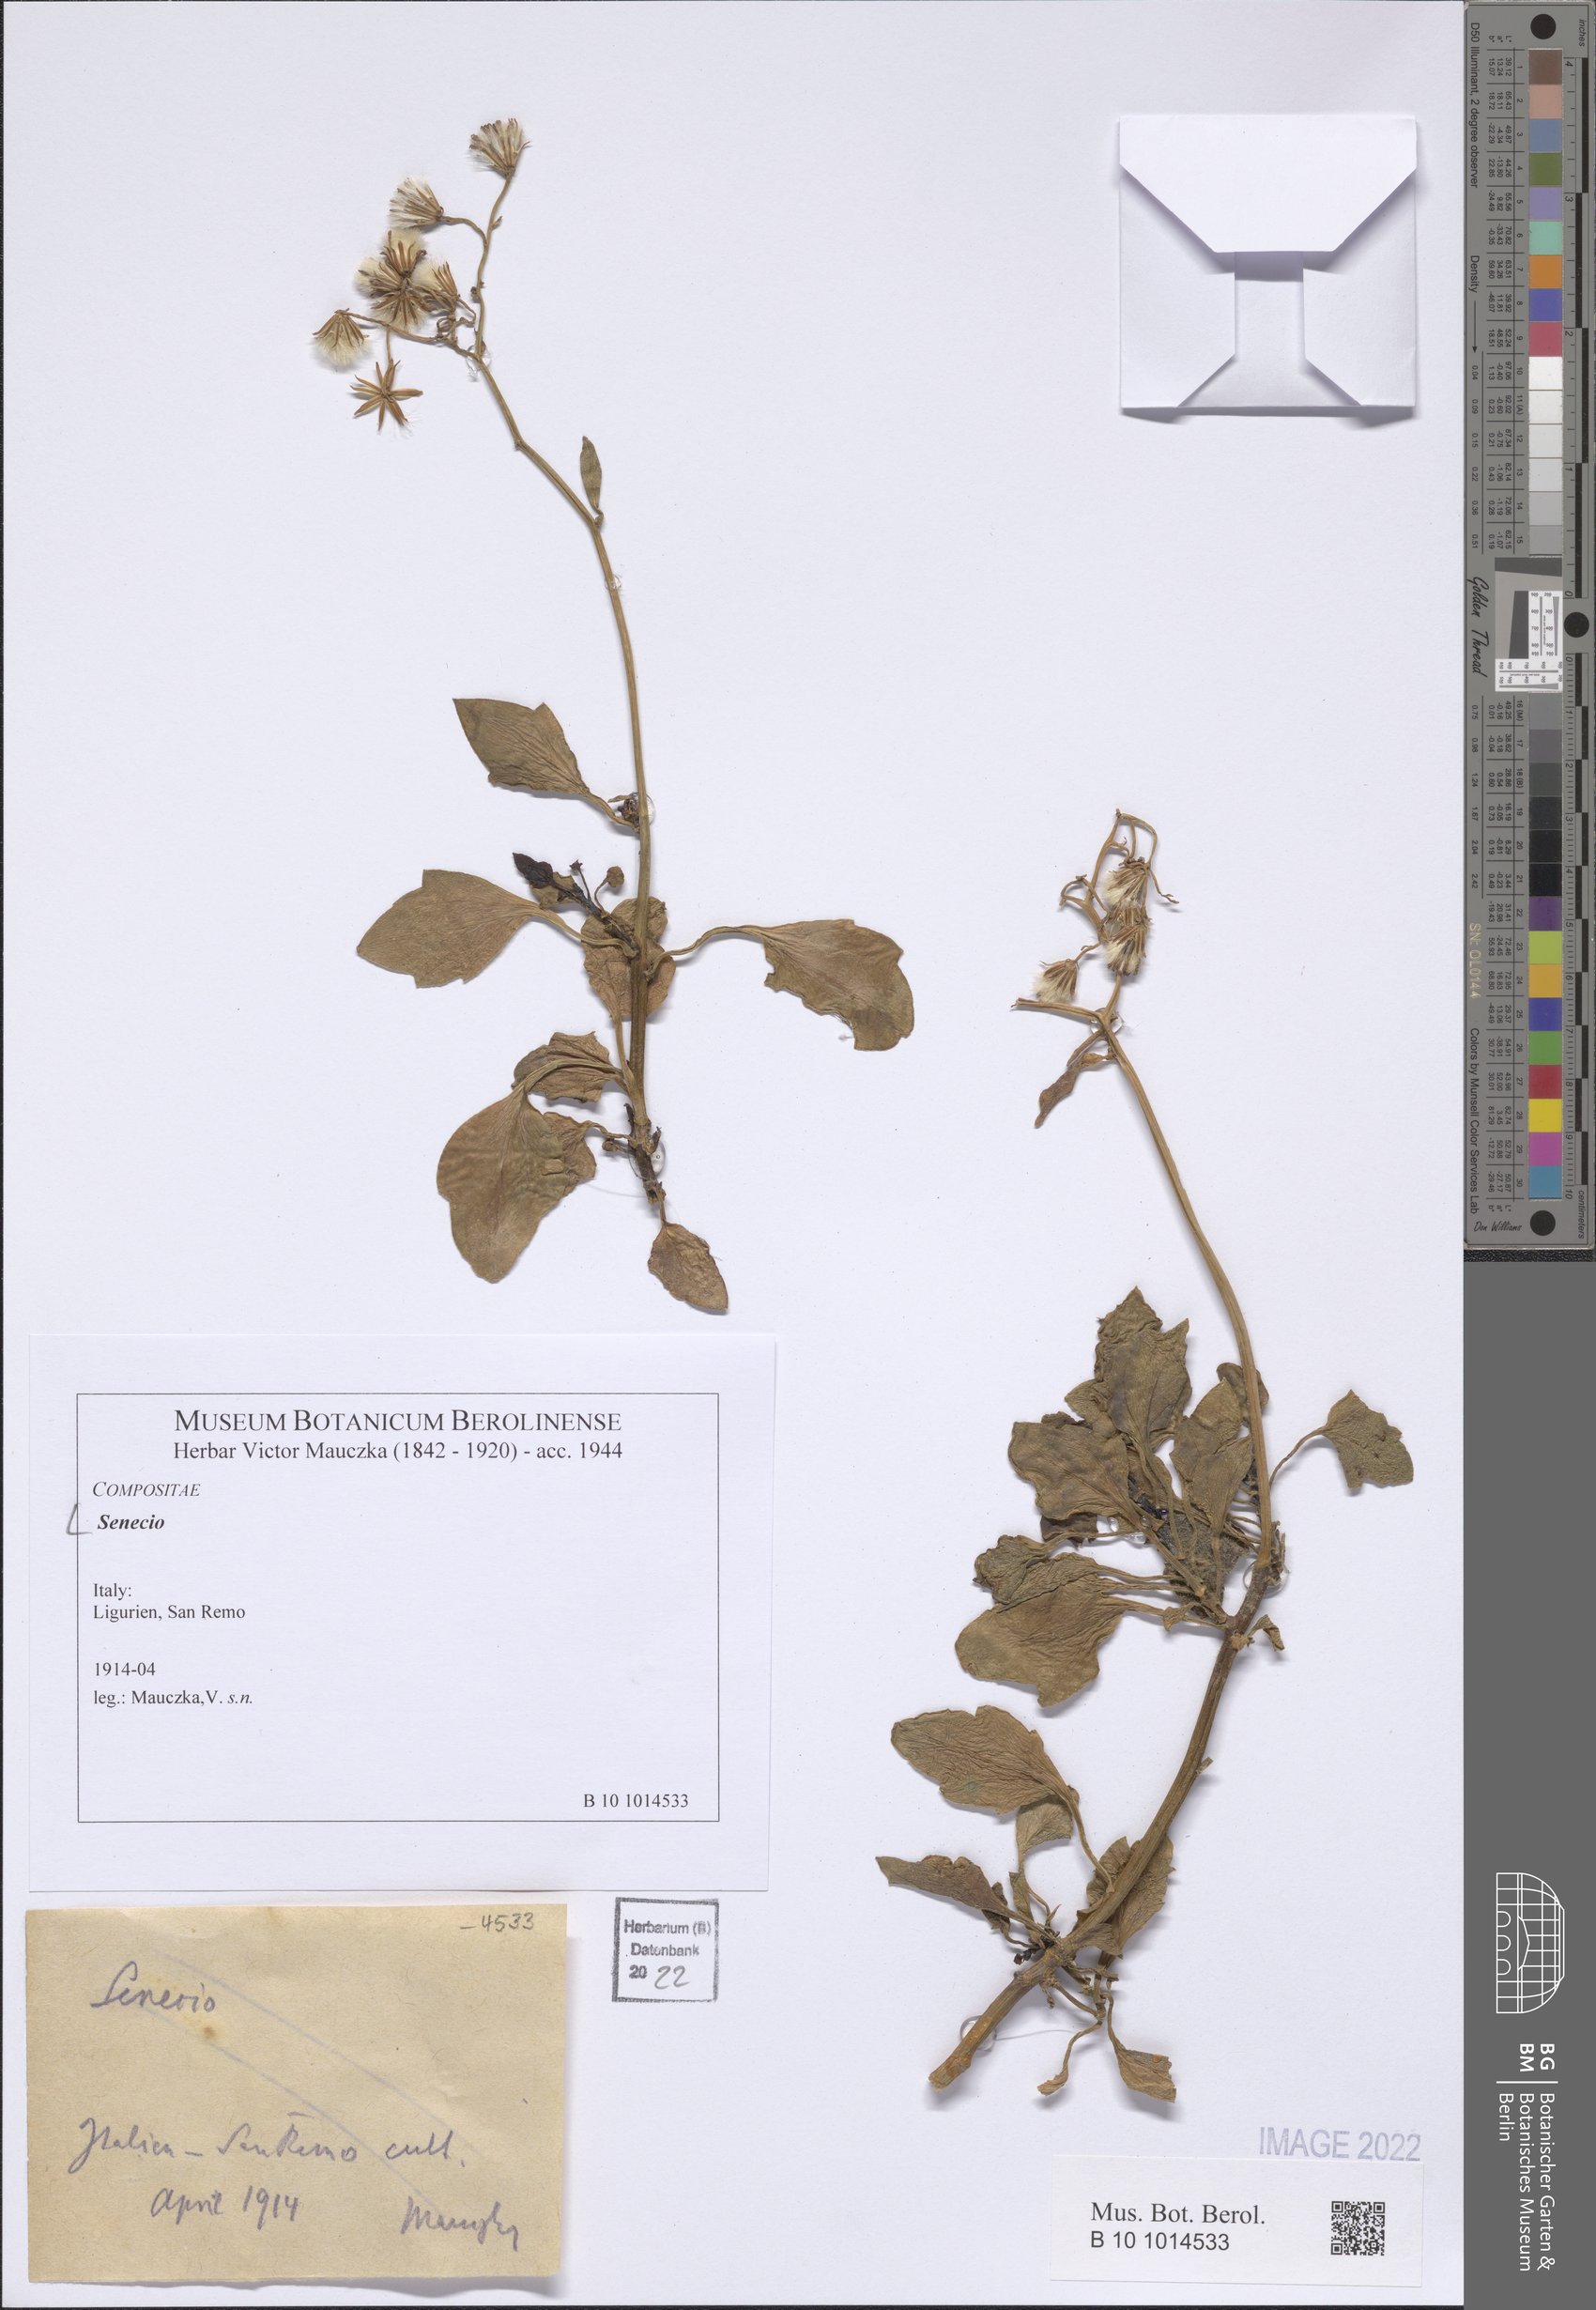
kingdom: Plantae
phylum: Tracheophyta
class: Magnoliopsida
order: Asterales
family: Asteraceae
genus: Senecio
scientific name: Senecio
